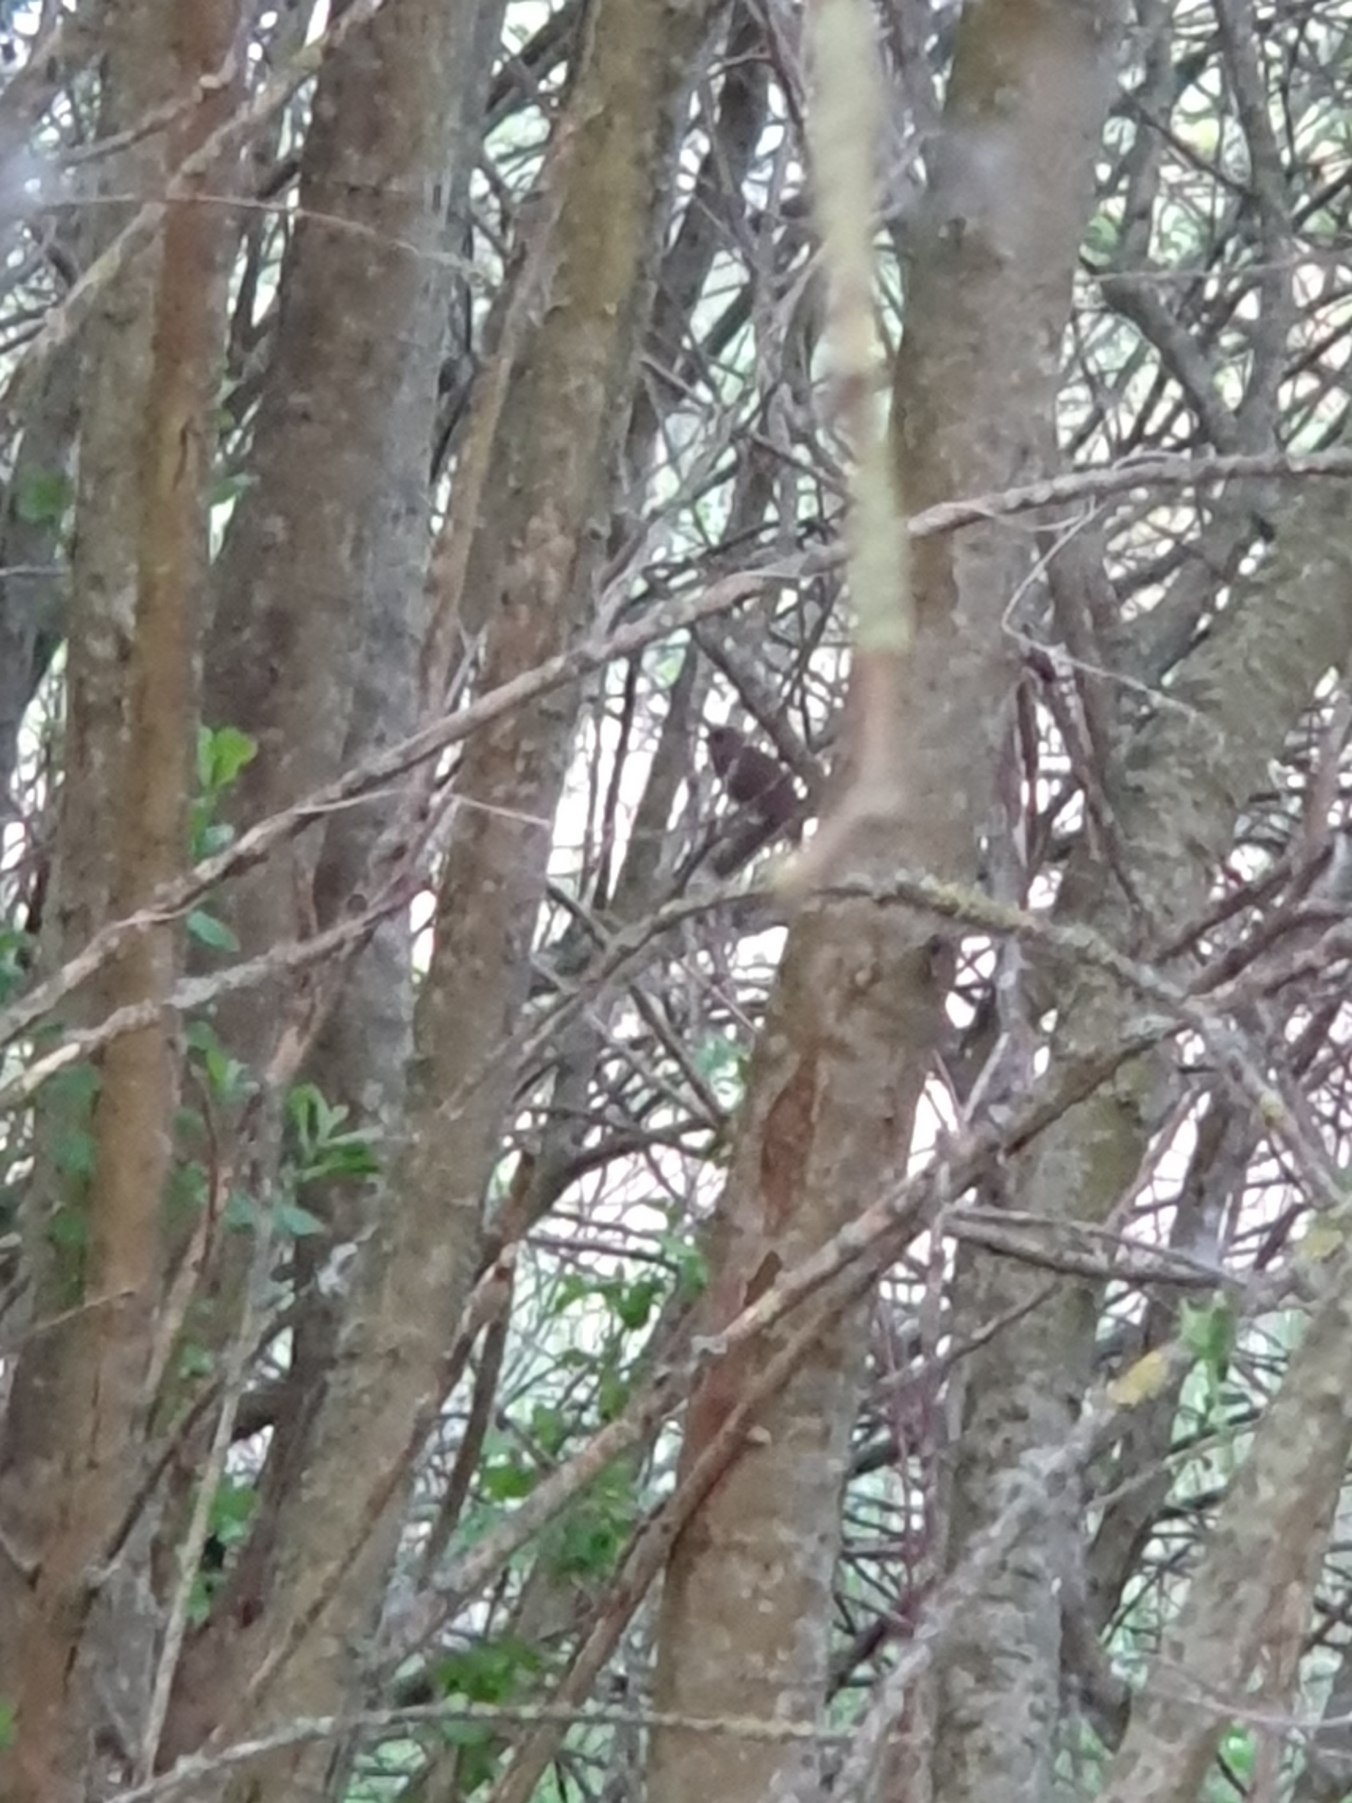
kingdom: Animalia
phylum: Chordata
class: Aves
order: Passeriformes
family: Muscicapidae
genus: Luscinia
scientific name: Luscinia luscinia
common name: Nattergal
